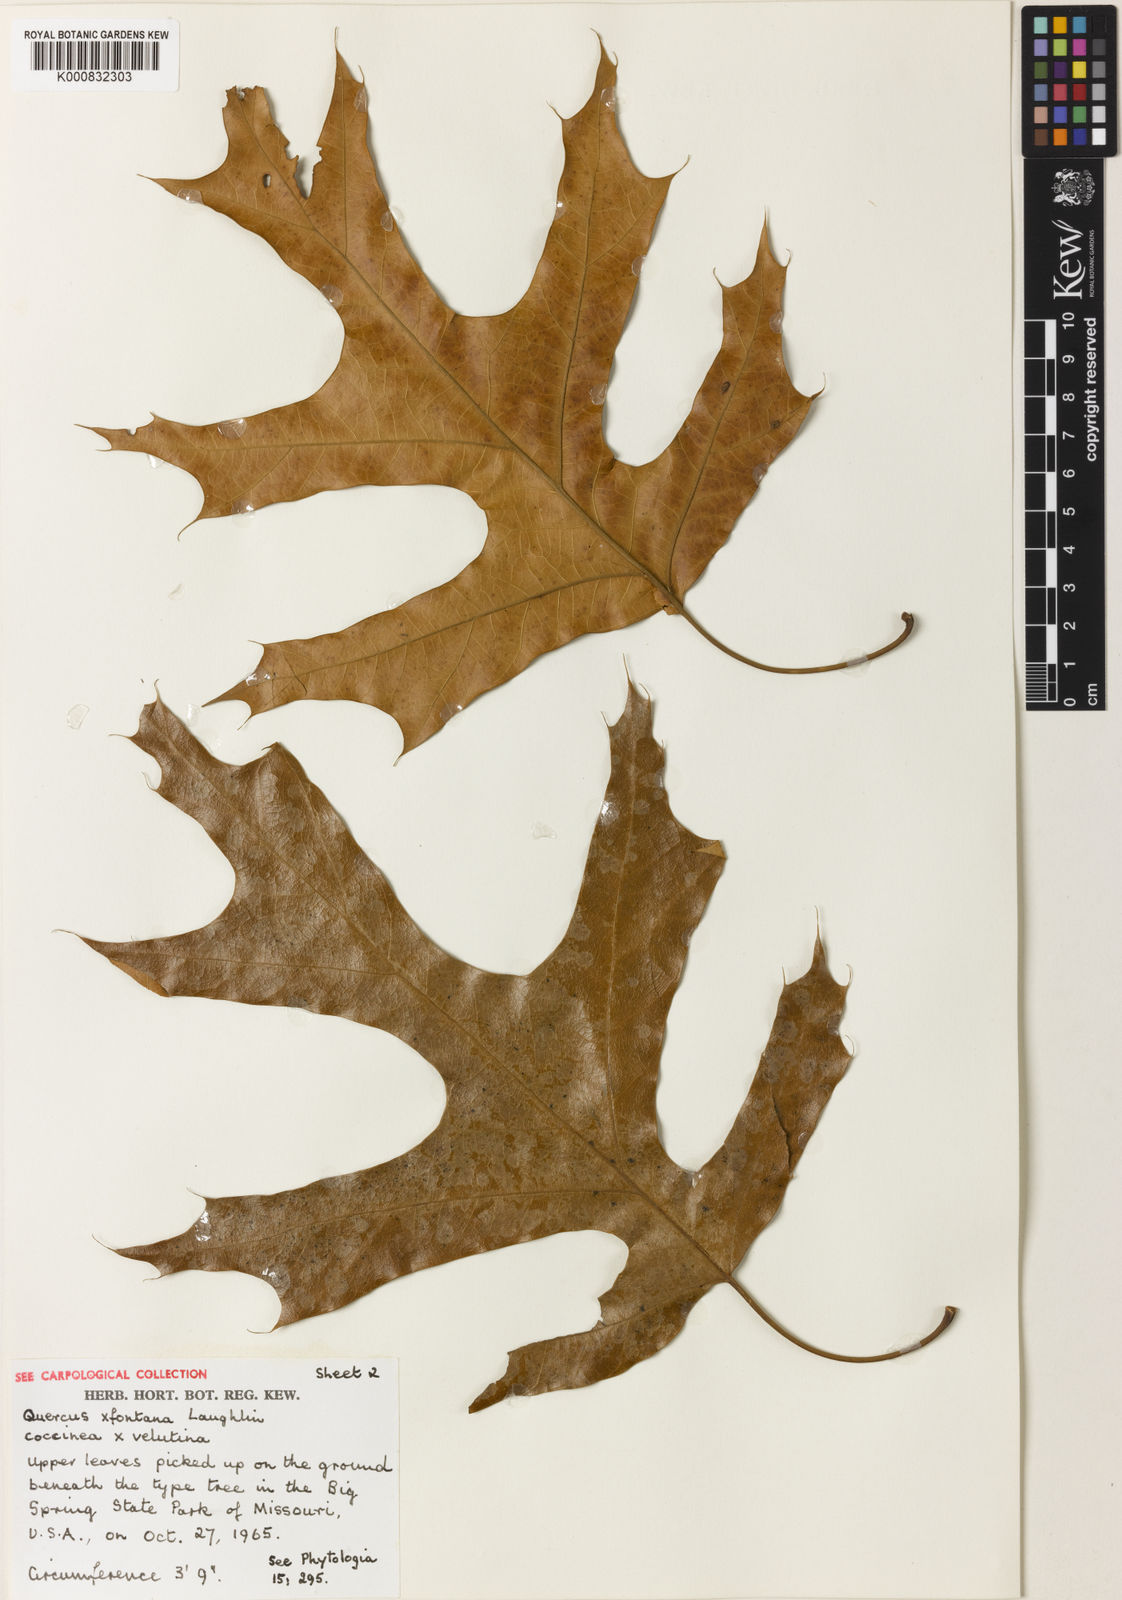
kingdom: Plantae
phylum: Tracheophyta
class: Magnoliopsida
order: Fagales
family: Fagaceae
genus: Quercus
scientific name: Quercus
